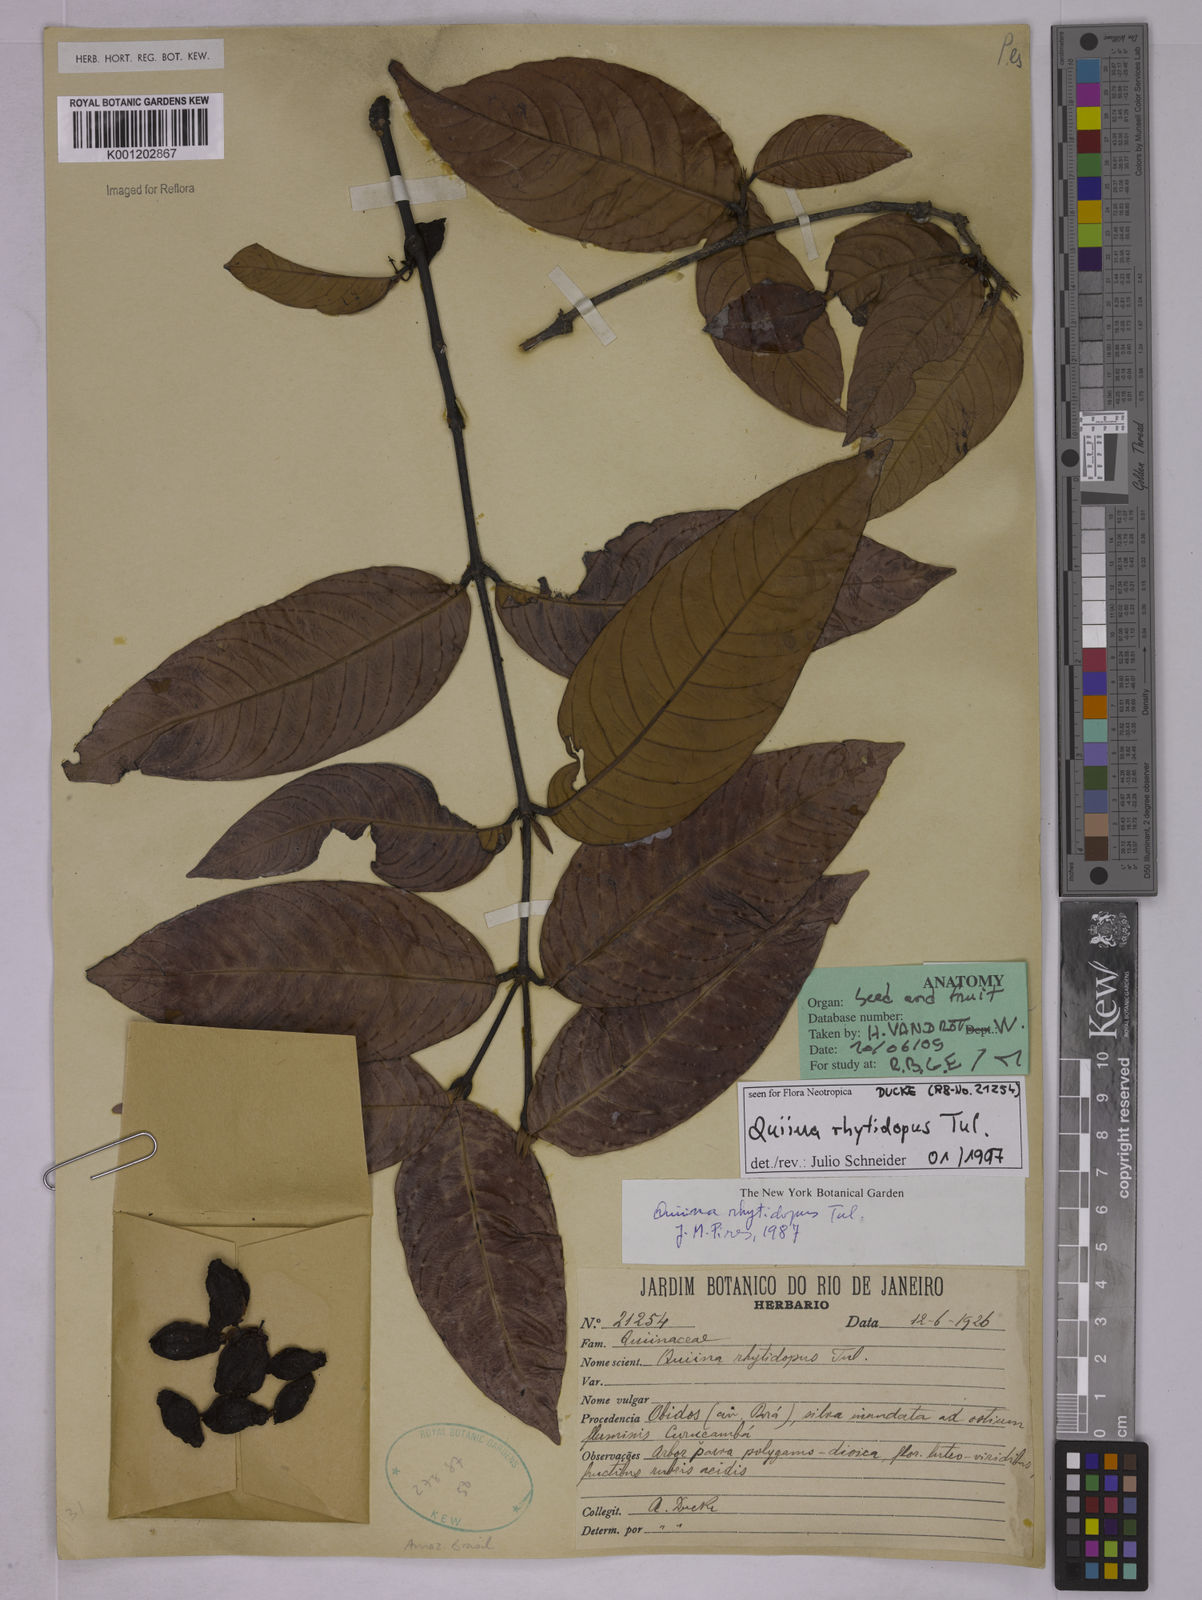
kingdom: Plantae
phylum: Tracheophyta
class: Magnoliopsida
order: Malpighiales
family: Quiinaceae
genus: Quiina
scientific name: Quiina rhytidopus
